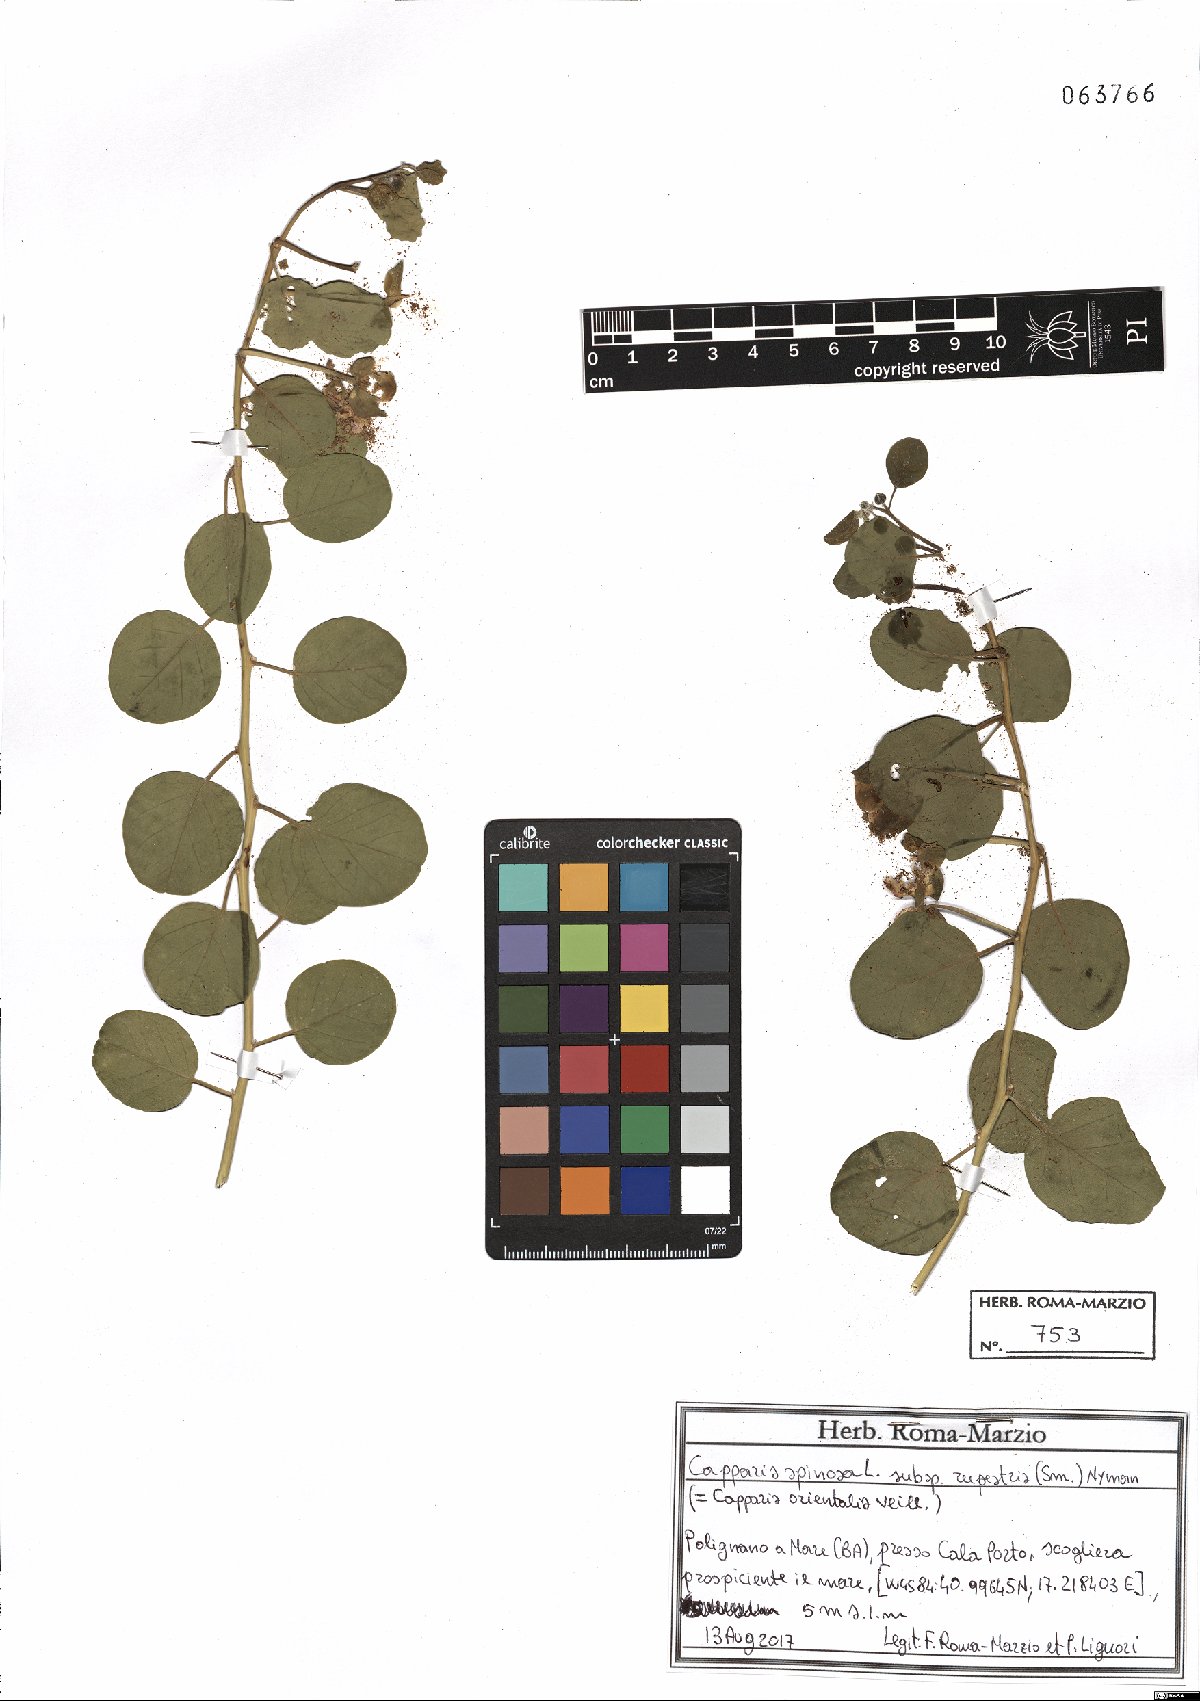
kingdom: Plantae
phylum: Tracheophyta
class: Magnoliopsida
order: Brassicales
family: Capparaceae
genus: Capparis
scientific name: Capparis spinosa
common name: Caper
